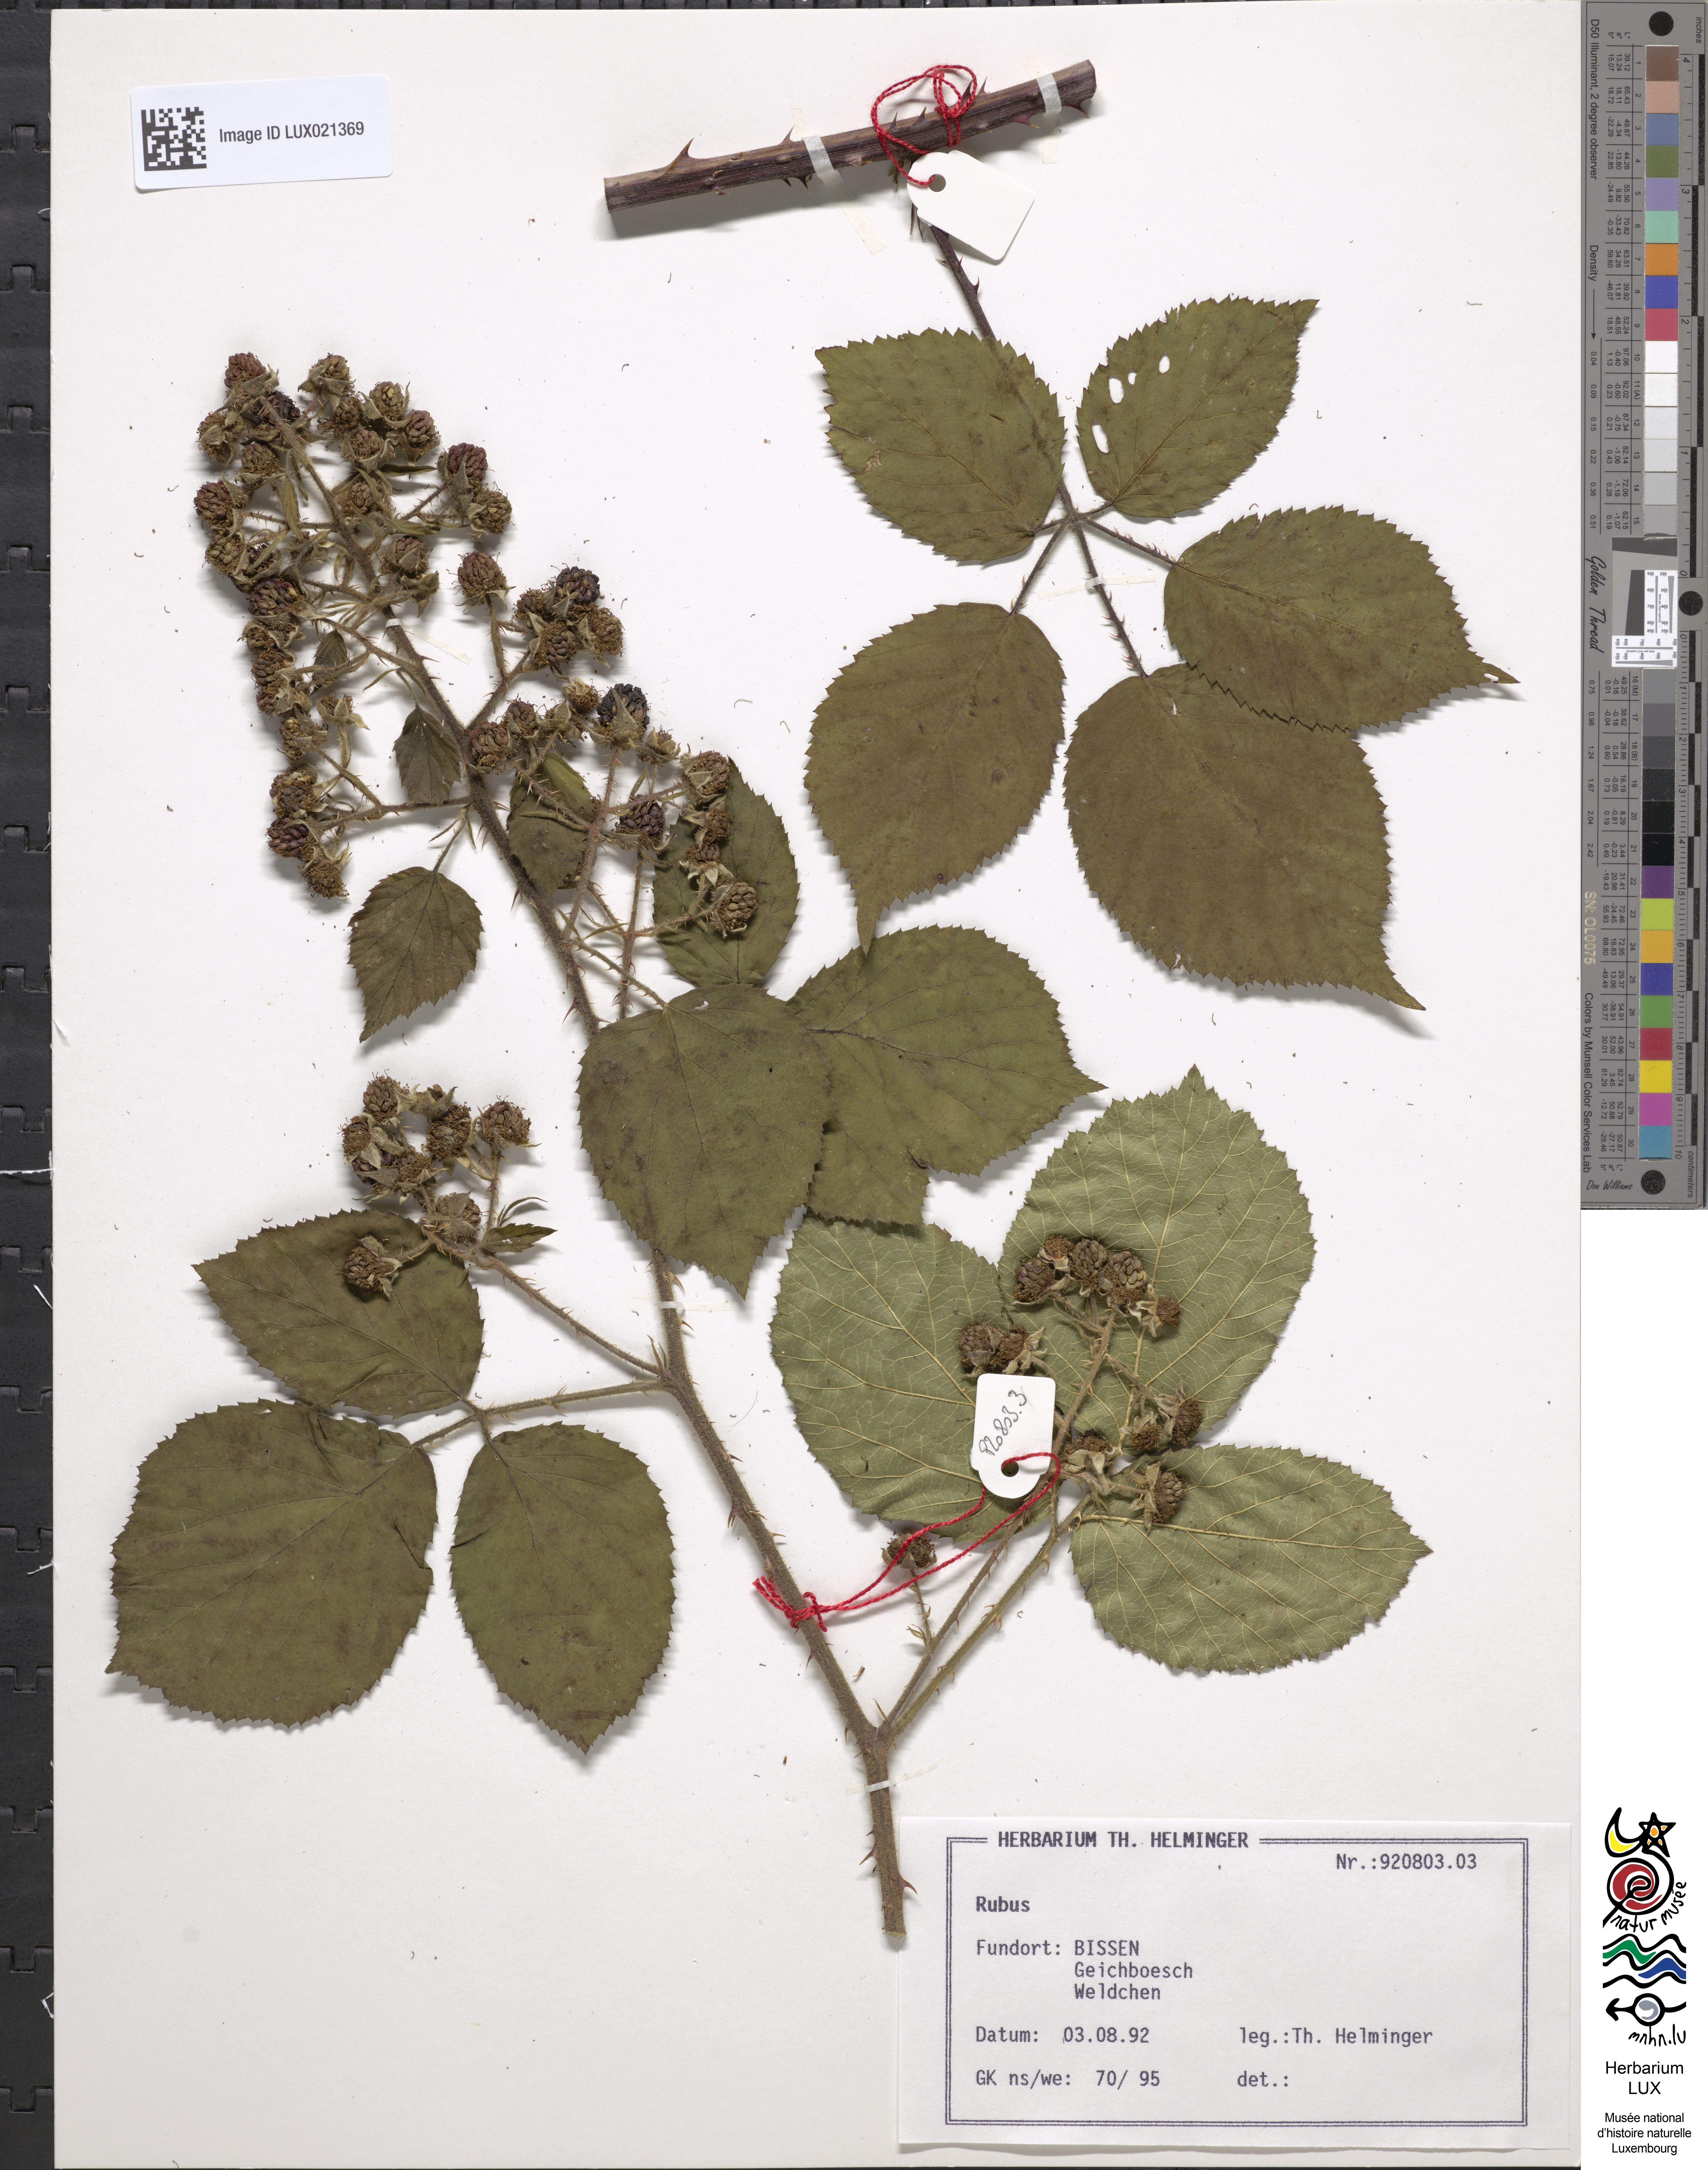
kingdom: Plantae
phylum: Tracheophyta
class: Magnoliopsida
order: Rosales
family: Rosaceae
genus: Rubus
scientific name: Rubus
